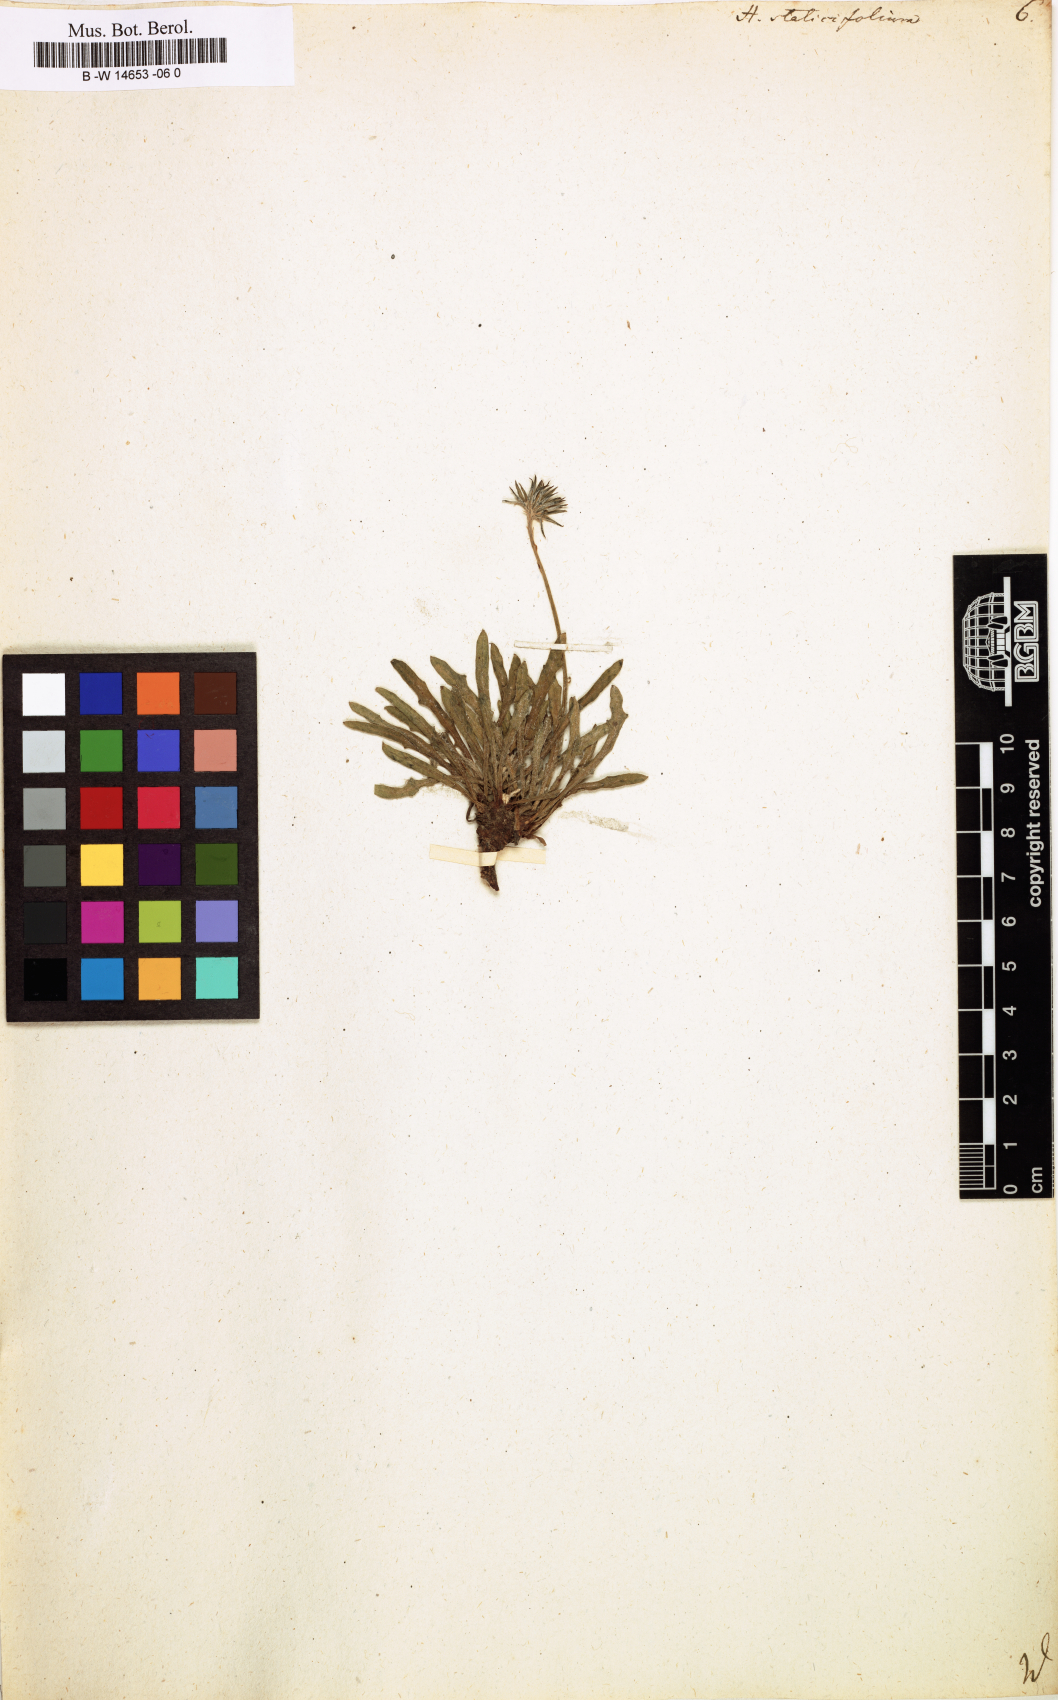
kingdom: Plantae
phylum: Tracheophyta
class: Magnoliopsida
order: Asterales
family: Asteraceae
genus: Hieracium
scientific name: Hieracium staticifolium
